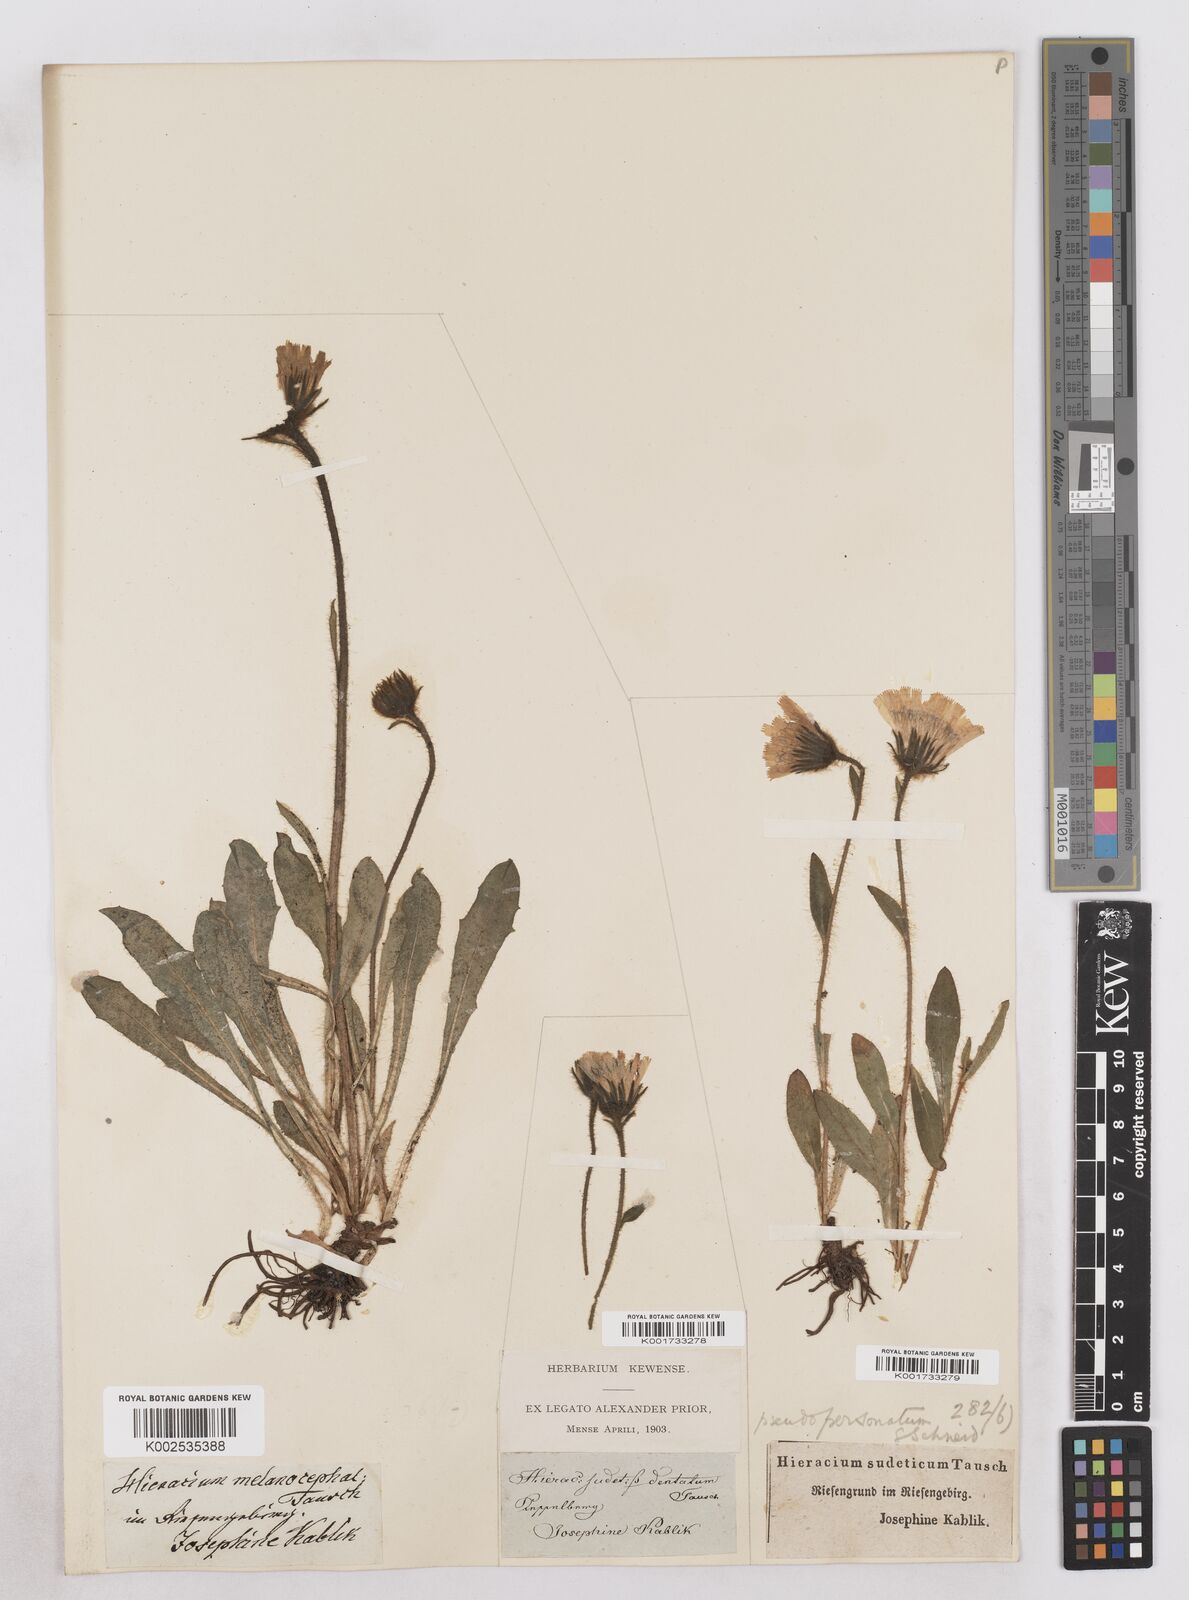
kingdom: Plantae
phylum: Tracheophyta
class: Magnoliopsida
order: Asterales
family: Asteraceae
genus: Hieracium
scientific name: Hieracium fritzei
